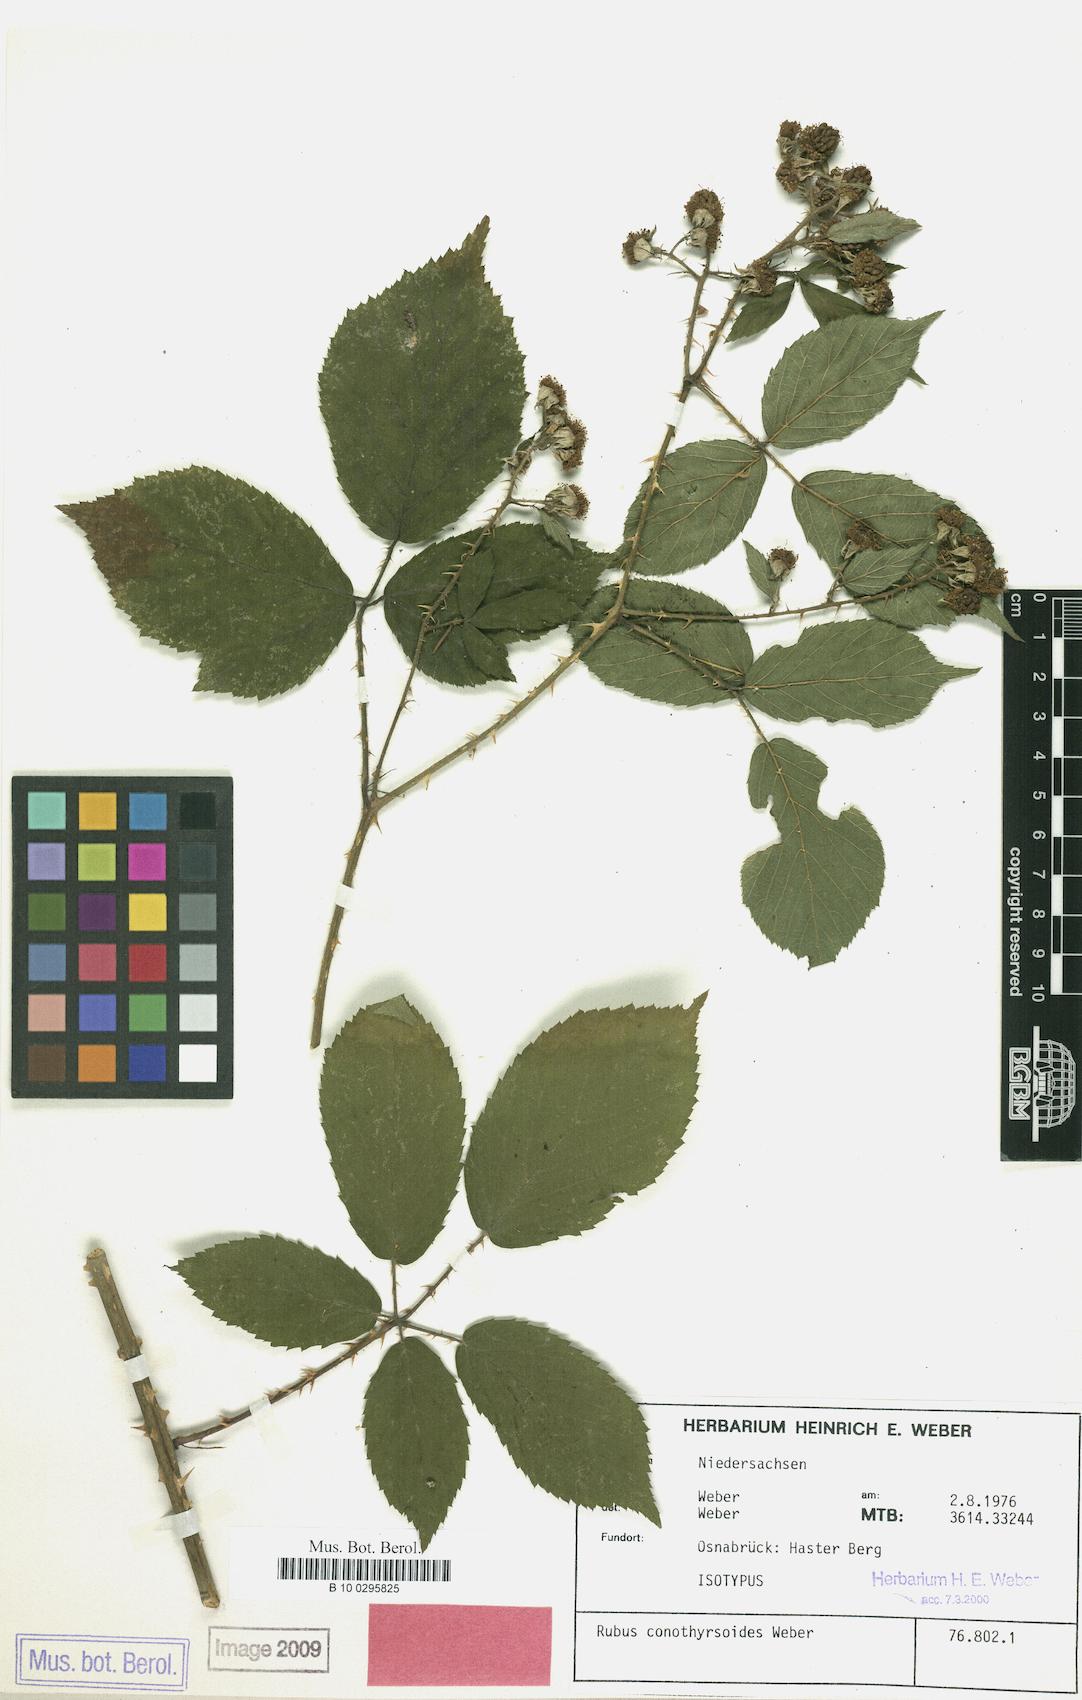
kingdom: Plantae
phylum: Tracheophyta
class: Magnoliopsida
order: Rosales
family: Rosaceae
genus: Rubus
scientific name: Rubus conothyrsoides
